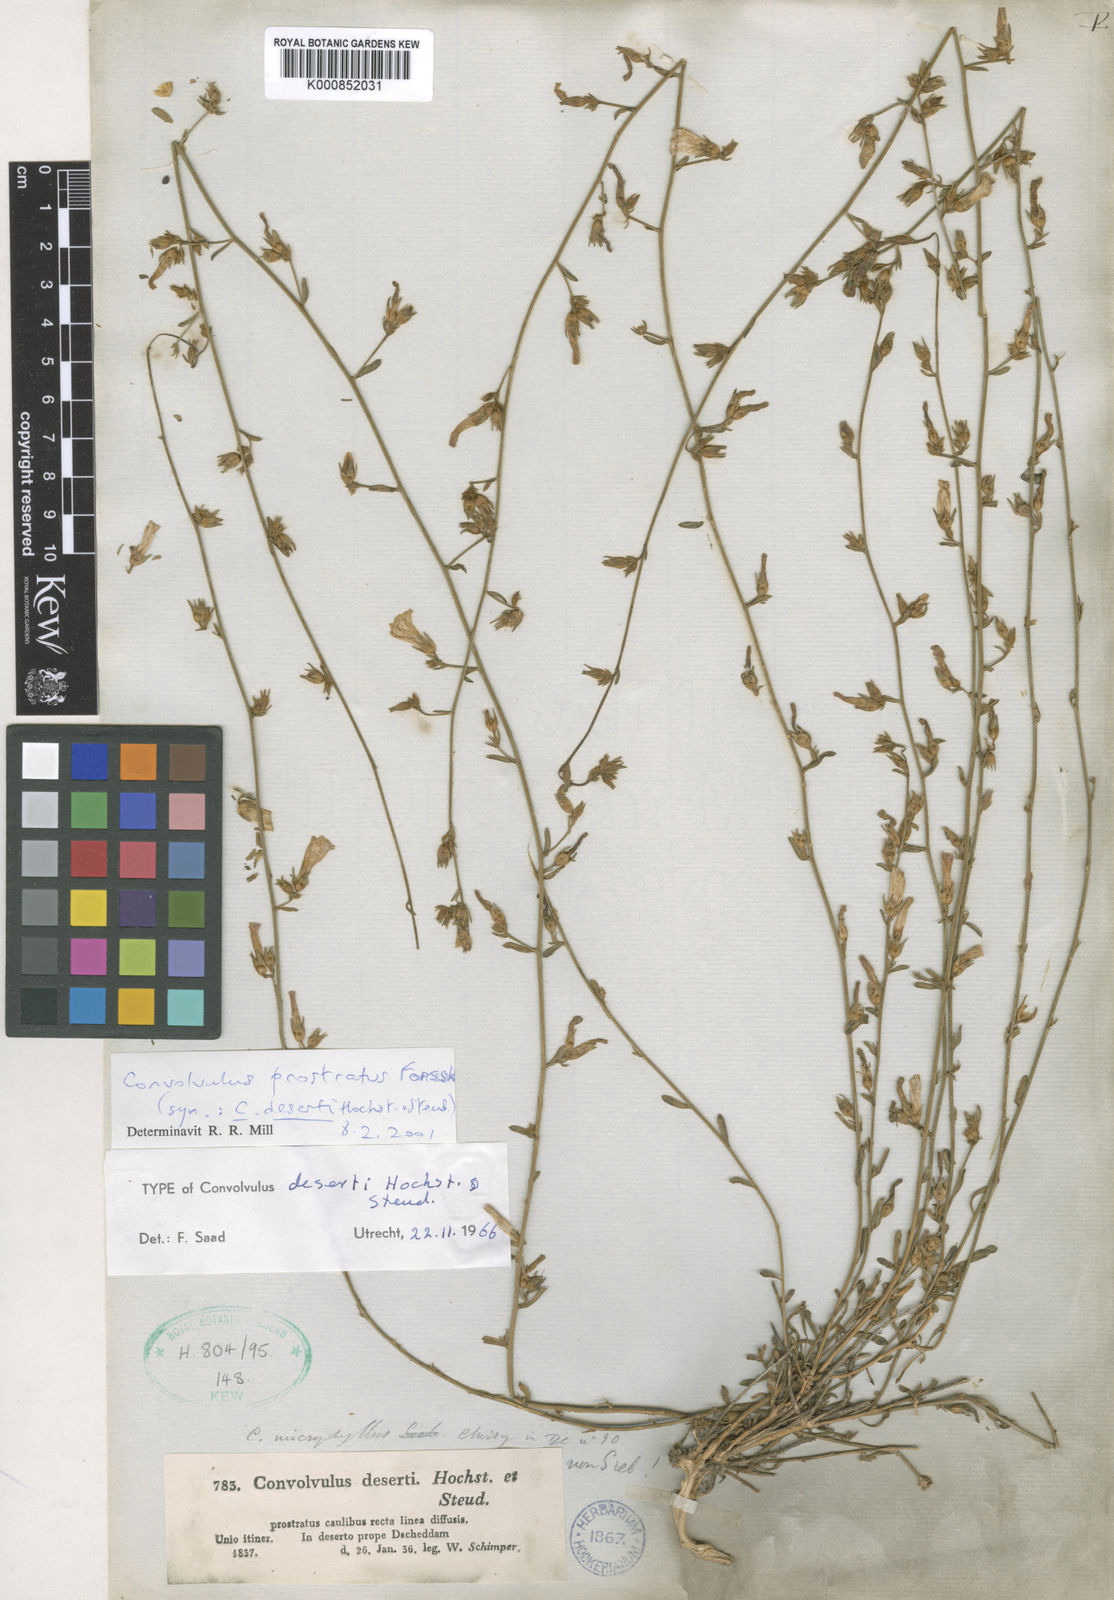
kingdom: Plantae
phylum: Tracheophyta
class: Magnoliopsida
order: Solanales
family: Convolvulaceae
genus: Convolvulus
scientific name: Convolvulus prostratus
